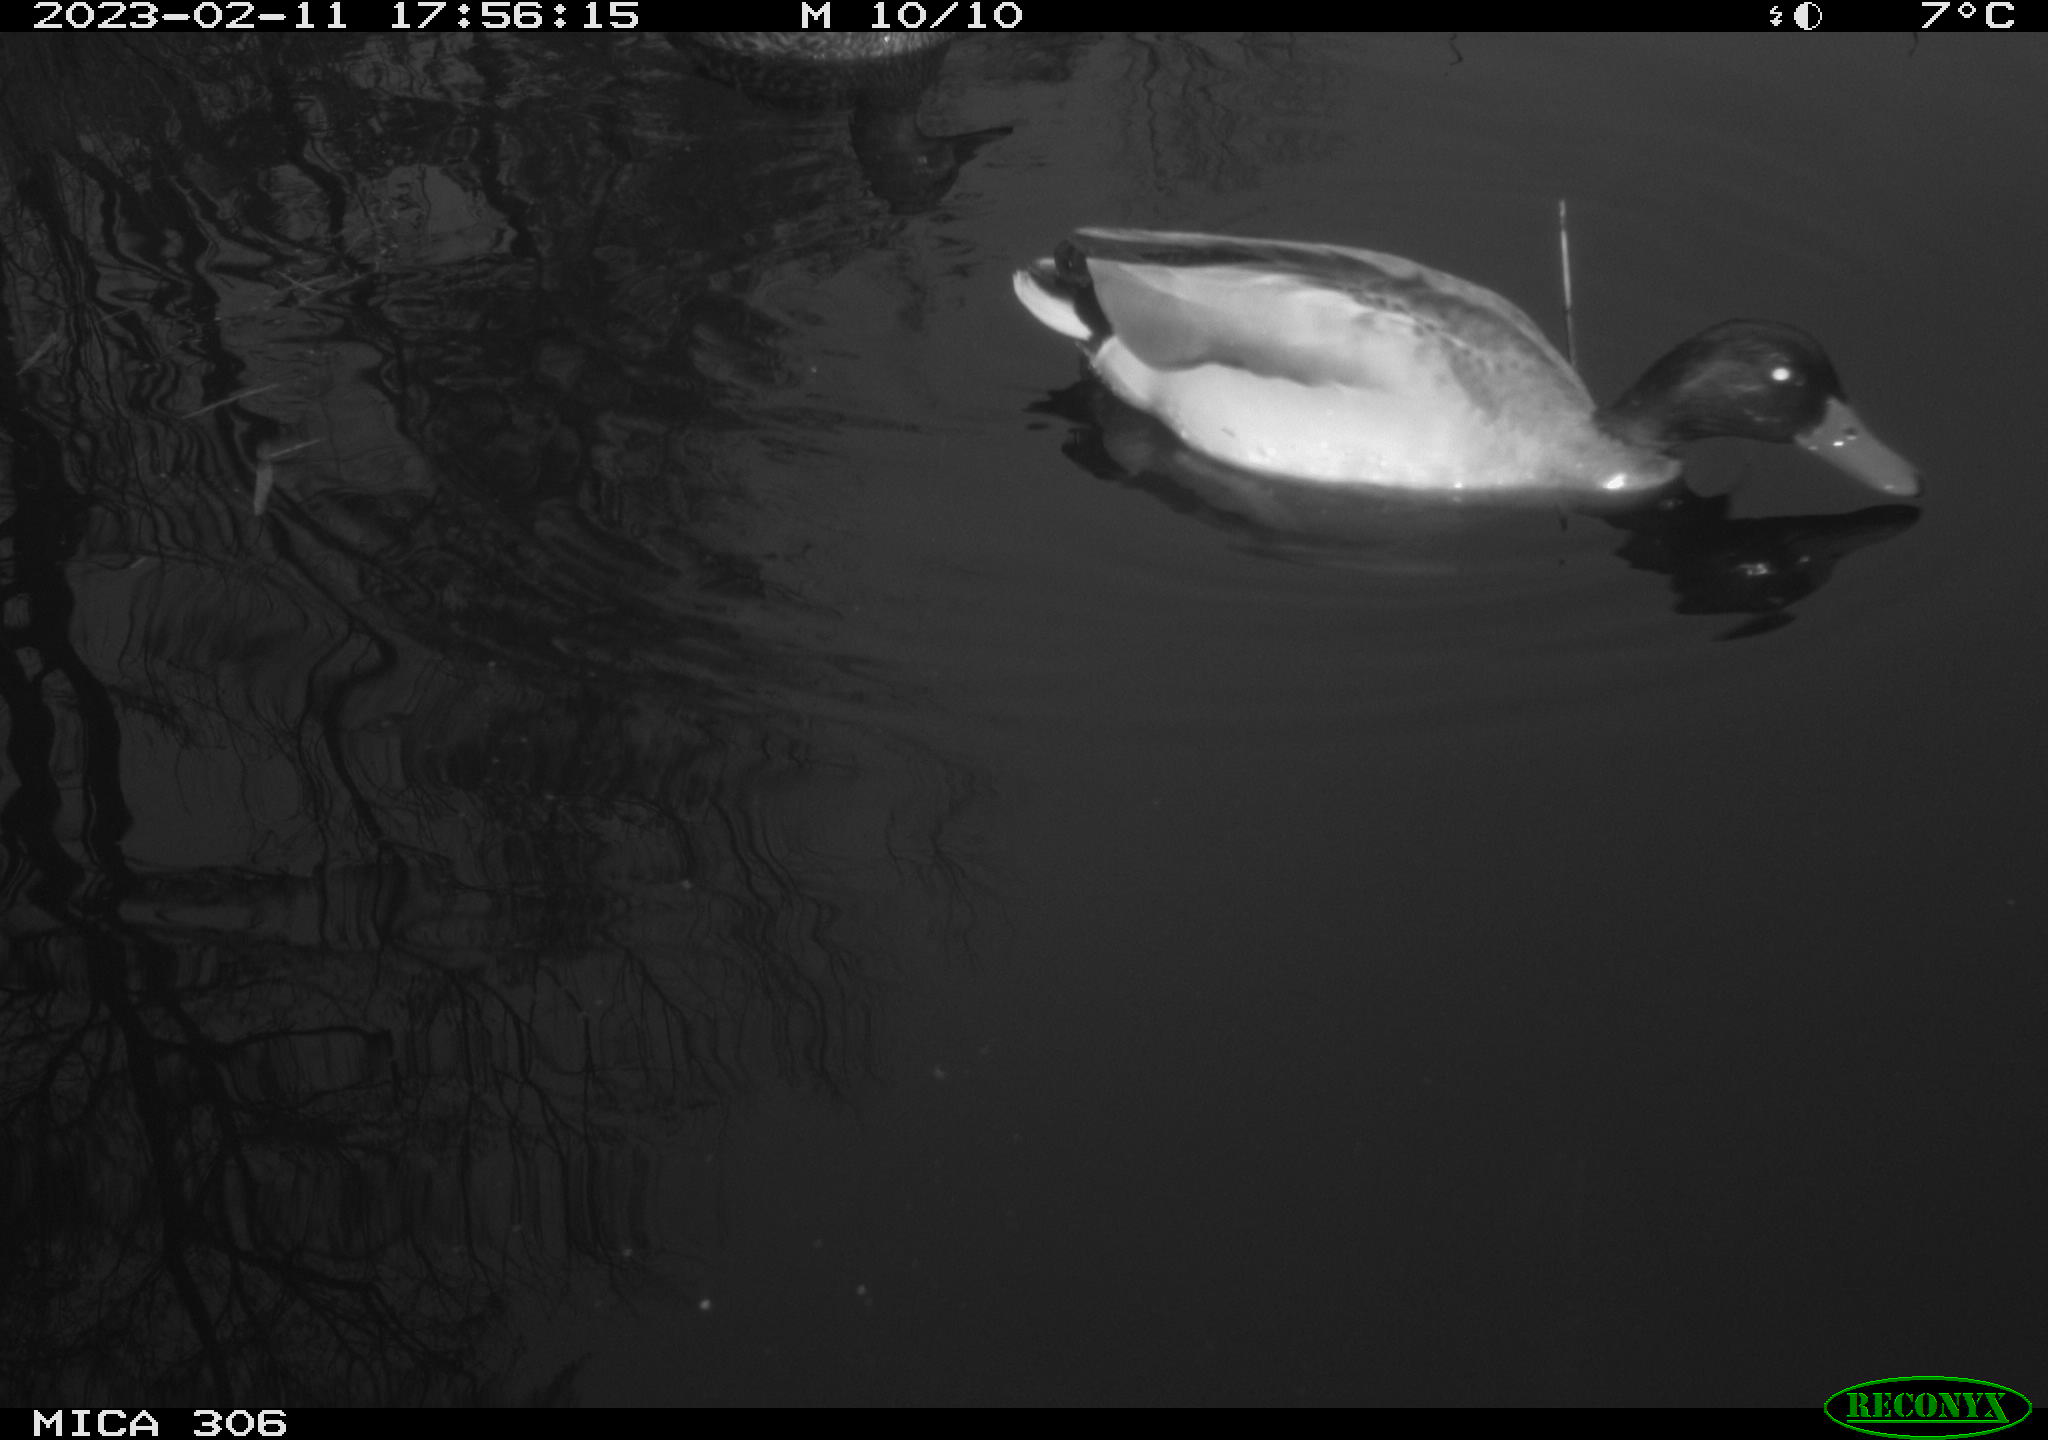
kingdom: Animalia
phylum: Chordata
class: Aves
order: Anseriformes
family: Anatidae
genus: Anas
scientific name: Anas
